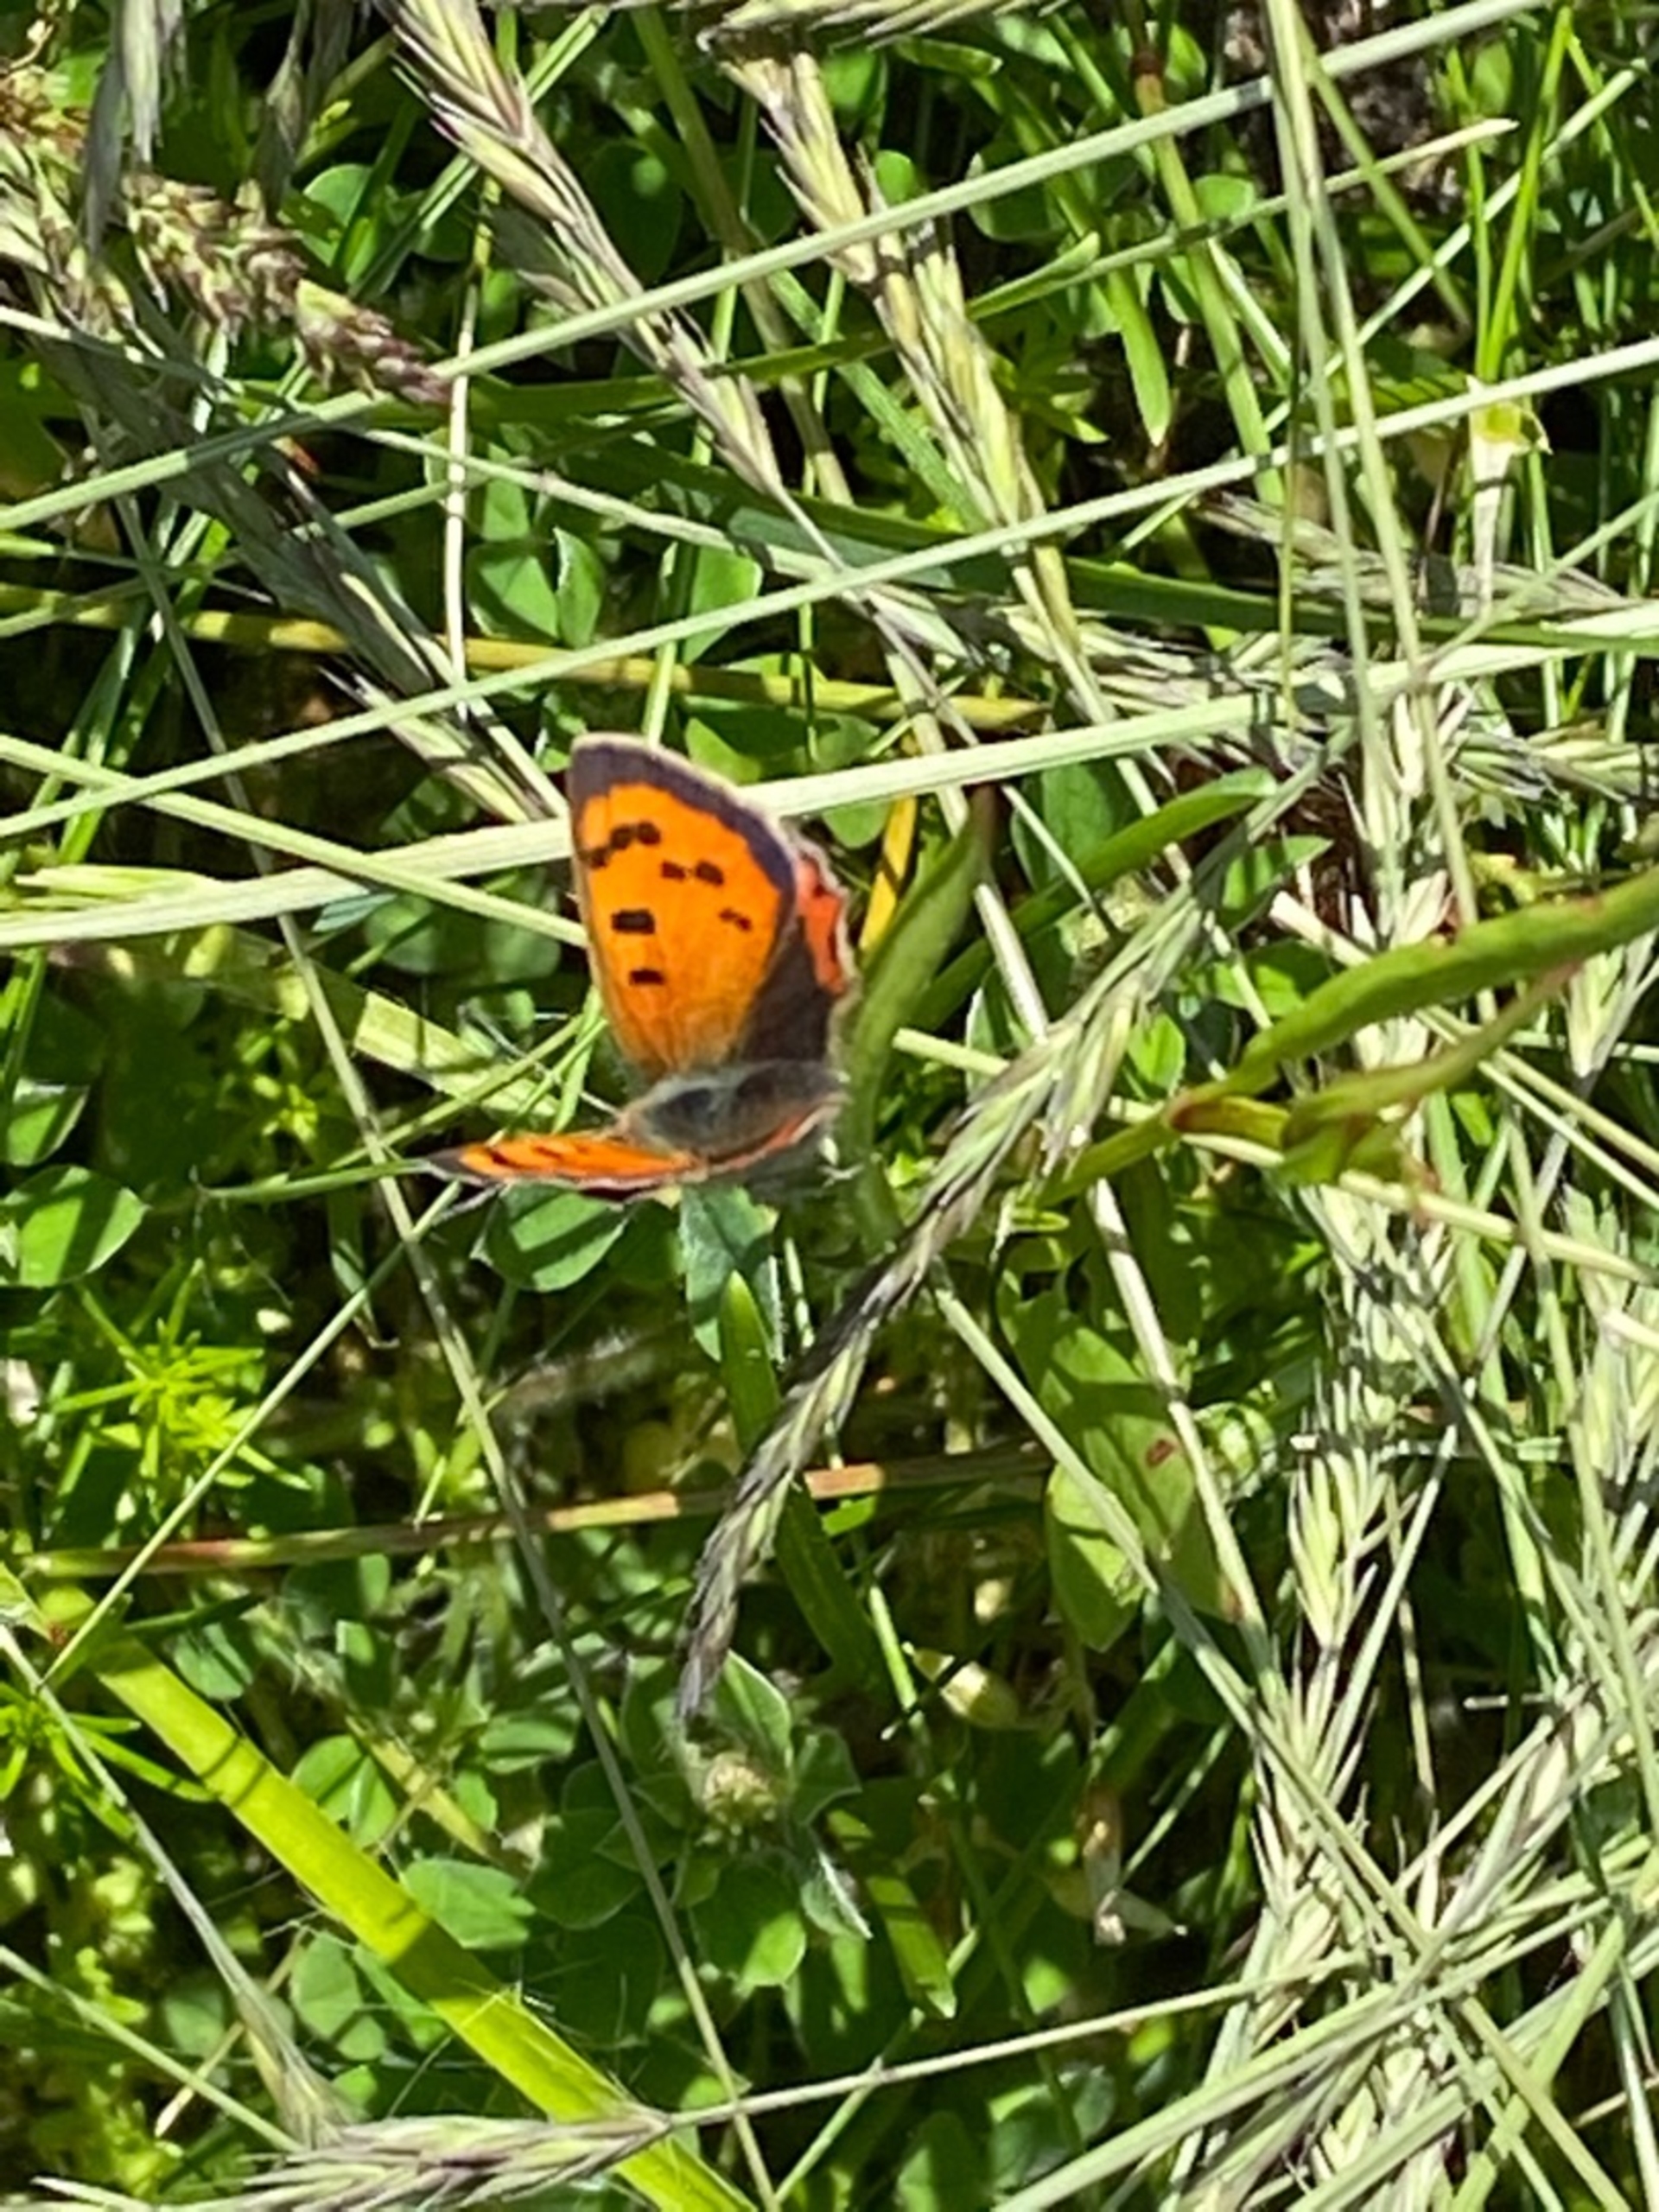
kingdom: Animalia
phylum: Arthropoda
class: Insecta
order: Lepidoptera
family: Lycaenidae
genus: Lycaena
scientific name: Lycaena phlaeas
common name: Lille ildfugl
